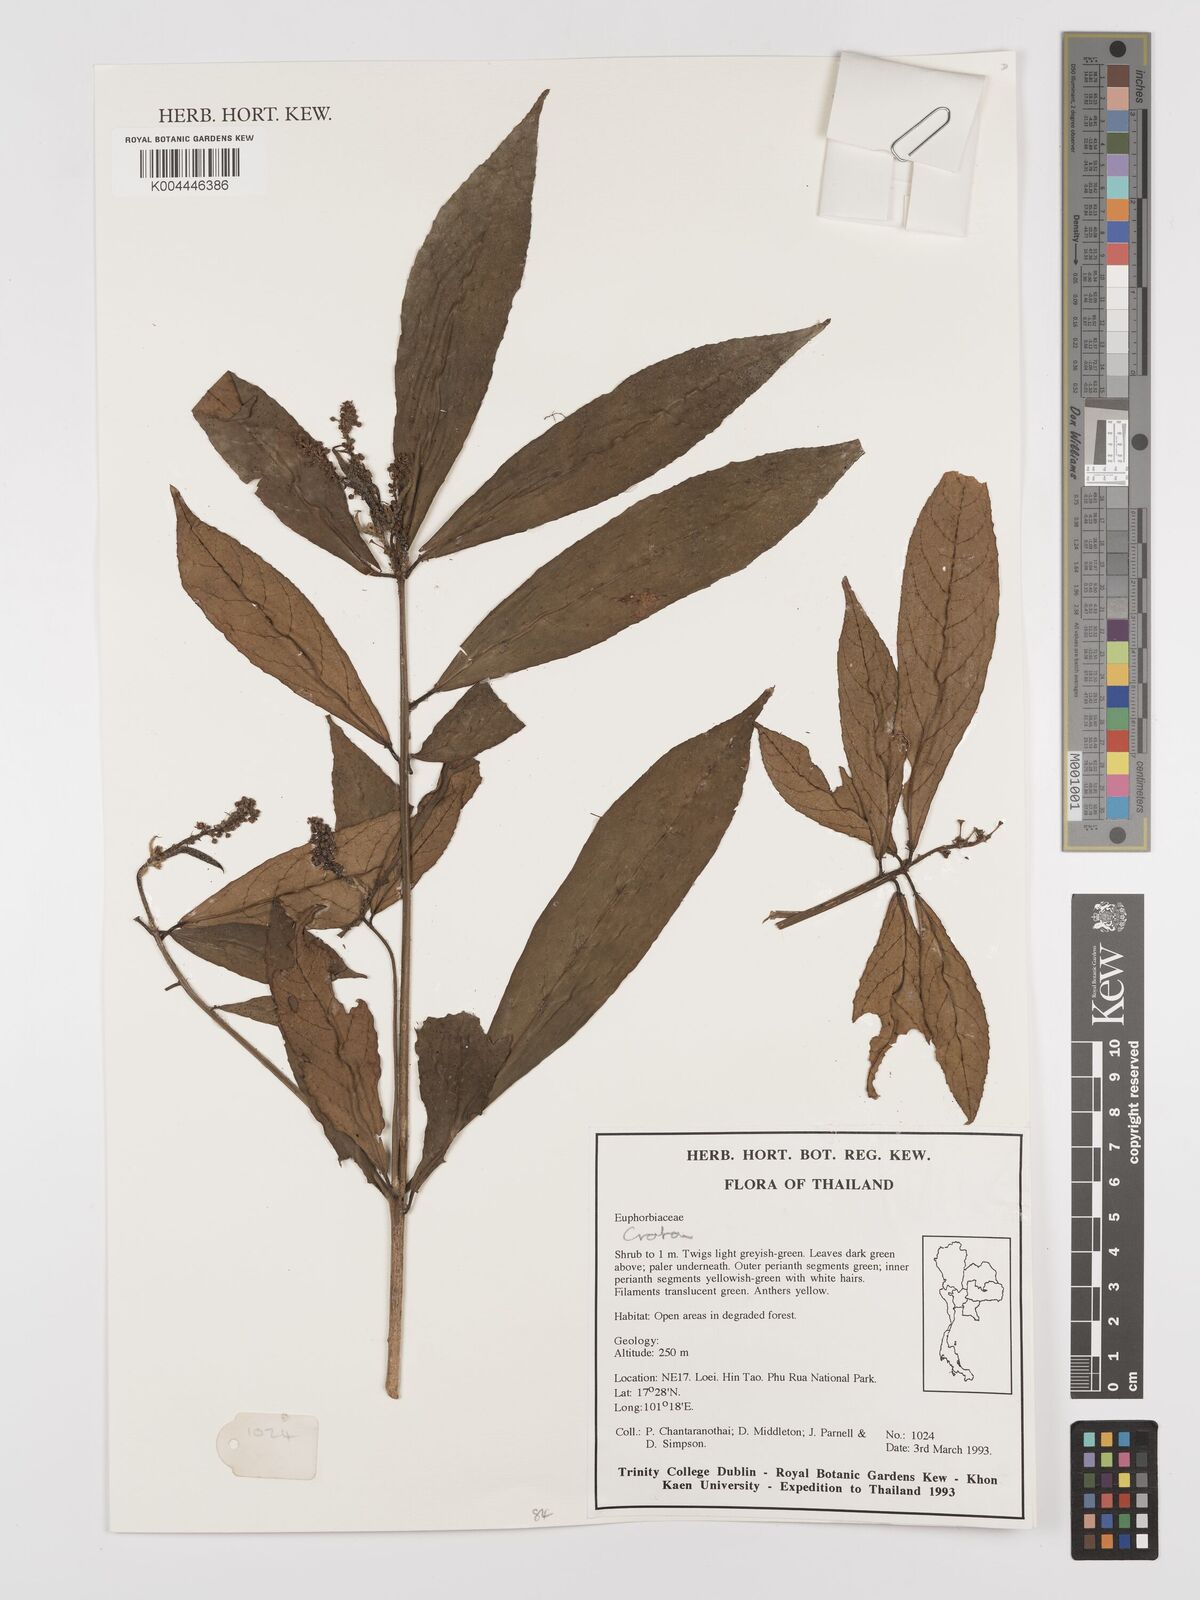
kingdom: Plantae
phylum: Tracheophyta
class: Magnoliopsida
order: Malpighiales
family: Euphorbiaceae
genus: Croton
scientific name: Croton
